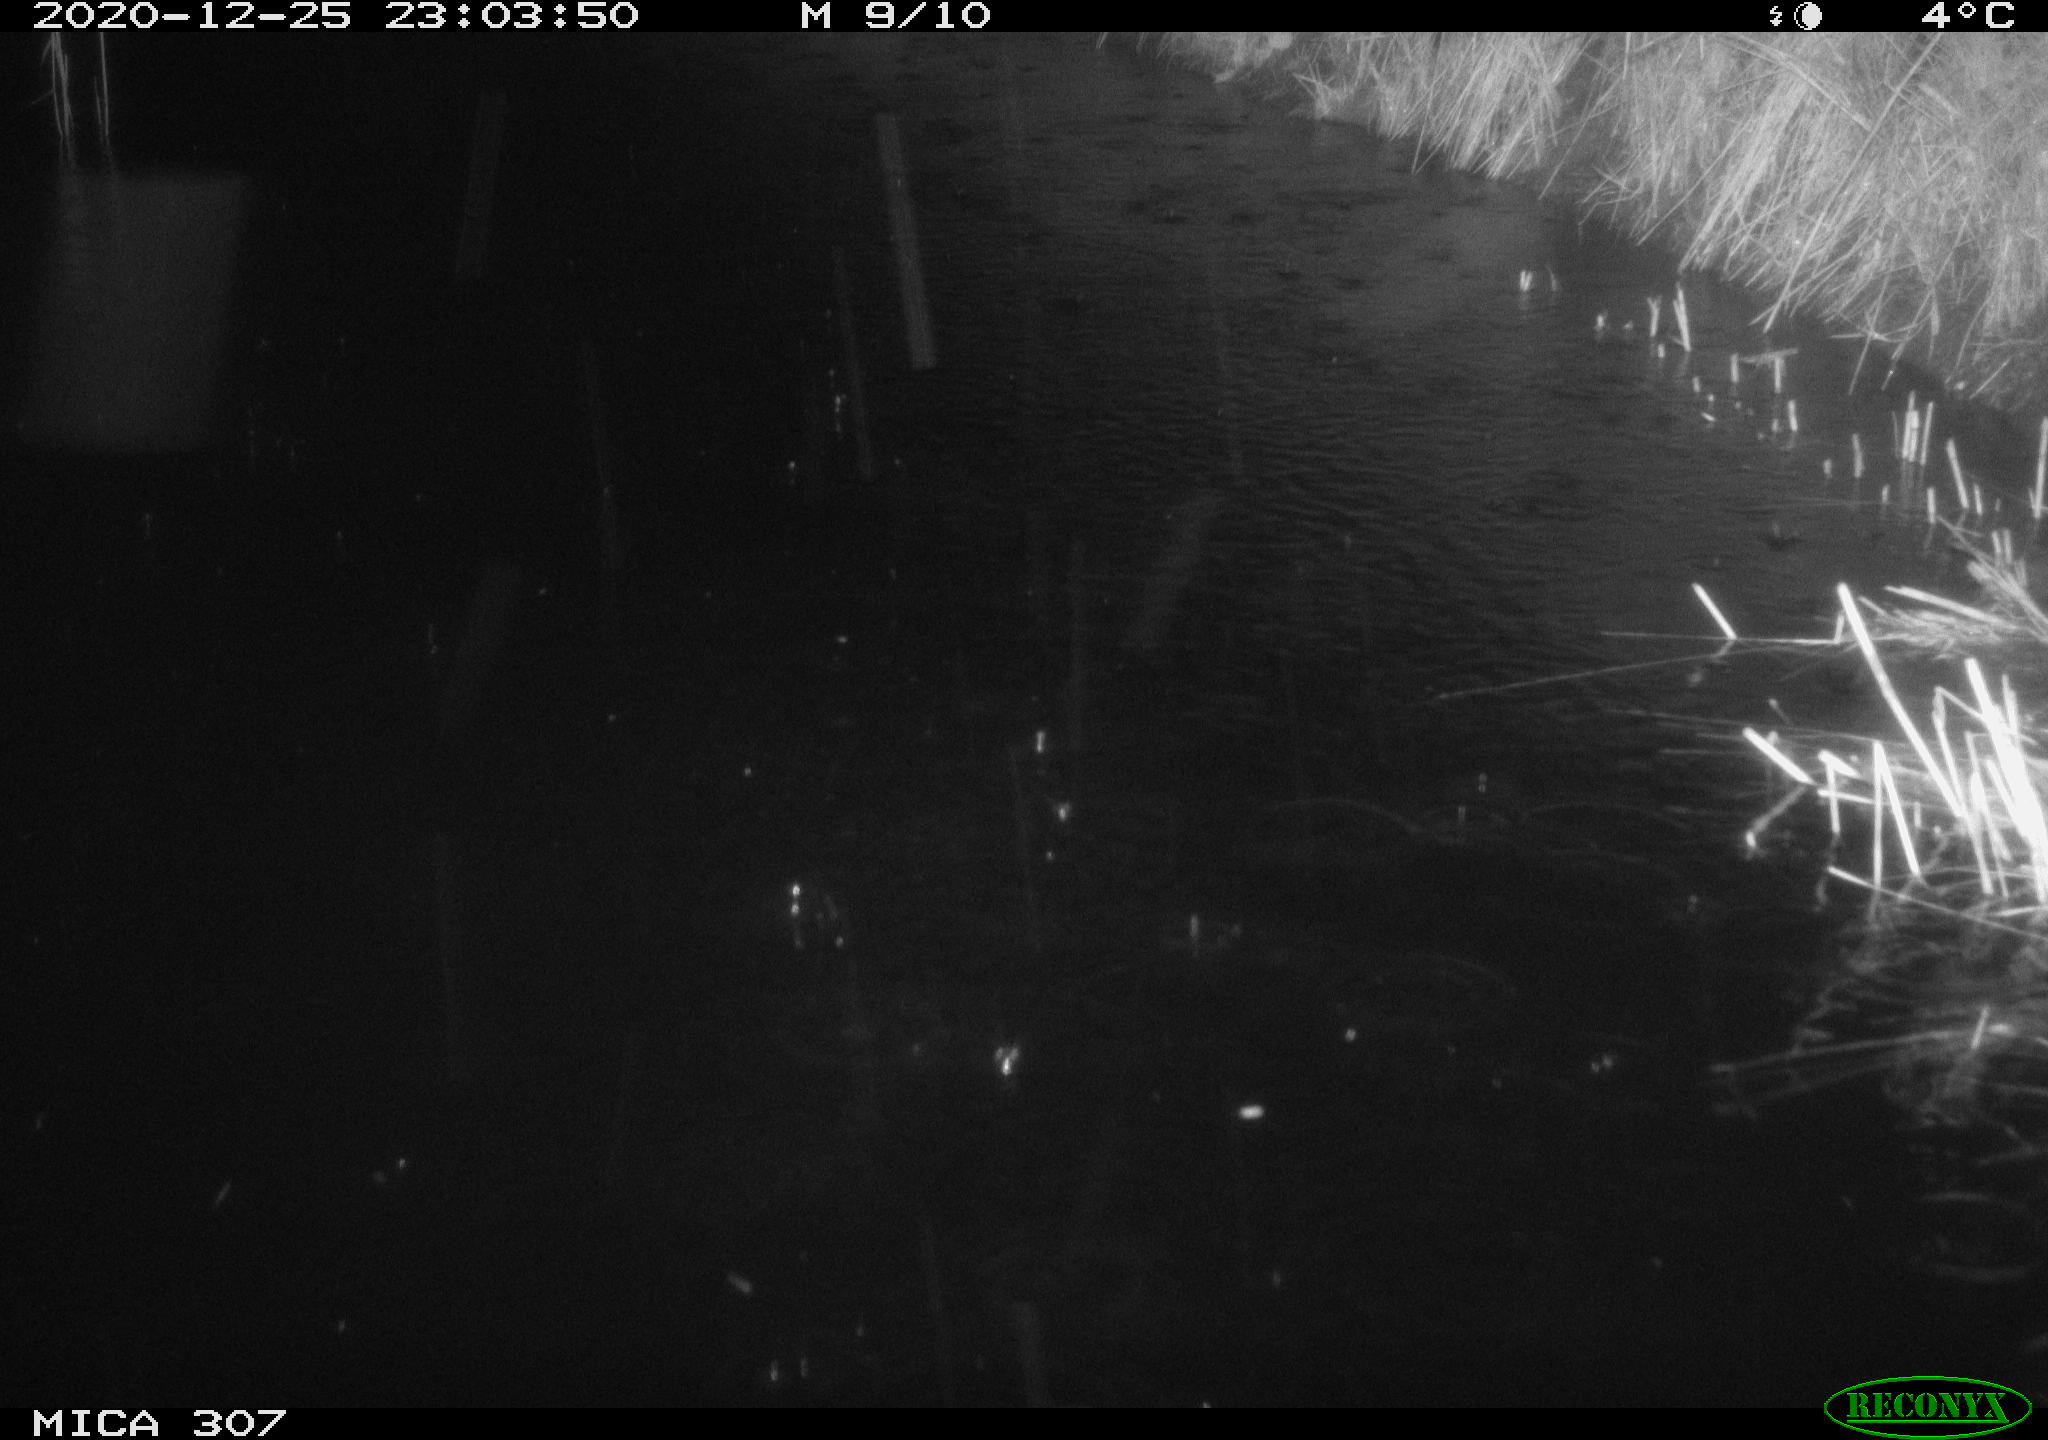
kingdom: Animalia
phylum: Chordata
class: Mammalia
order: Rodentia
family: Muridae
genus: Rattus
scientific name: Rattus norvegicus
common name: Brown rat
